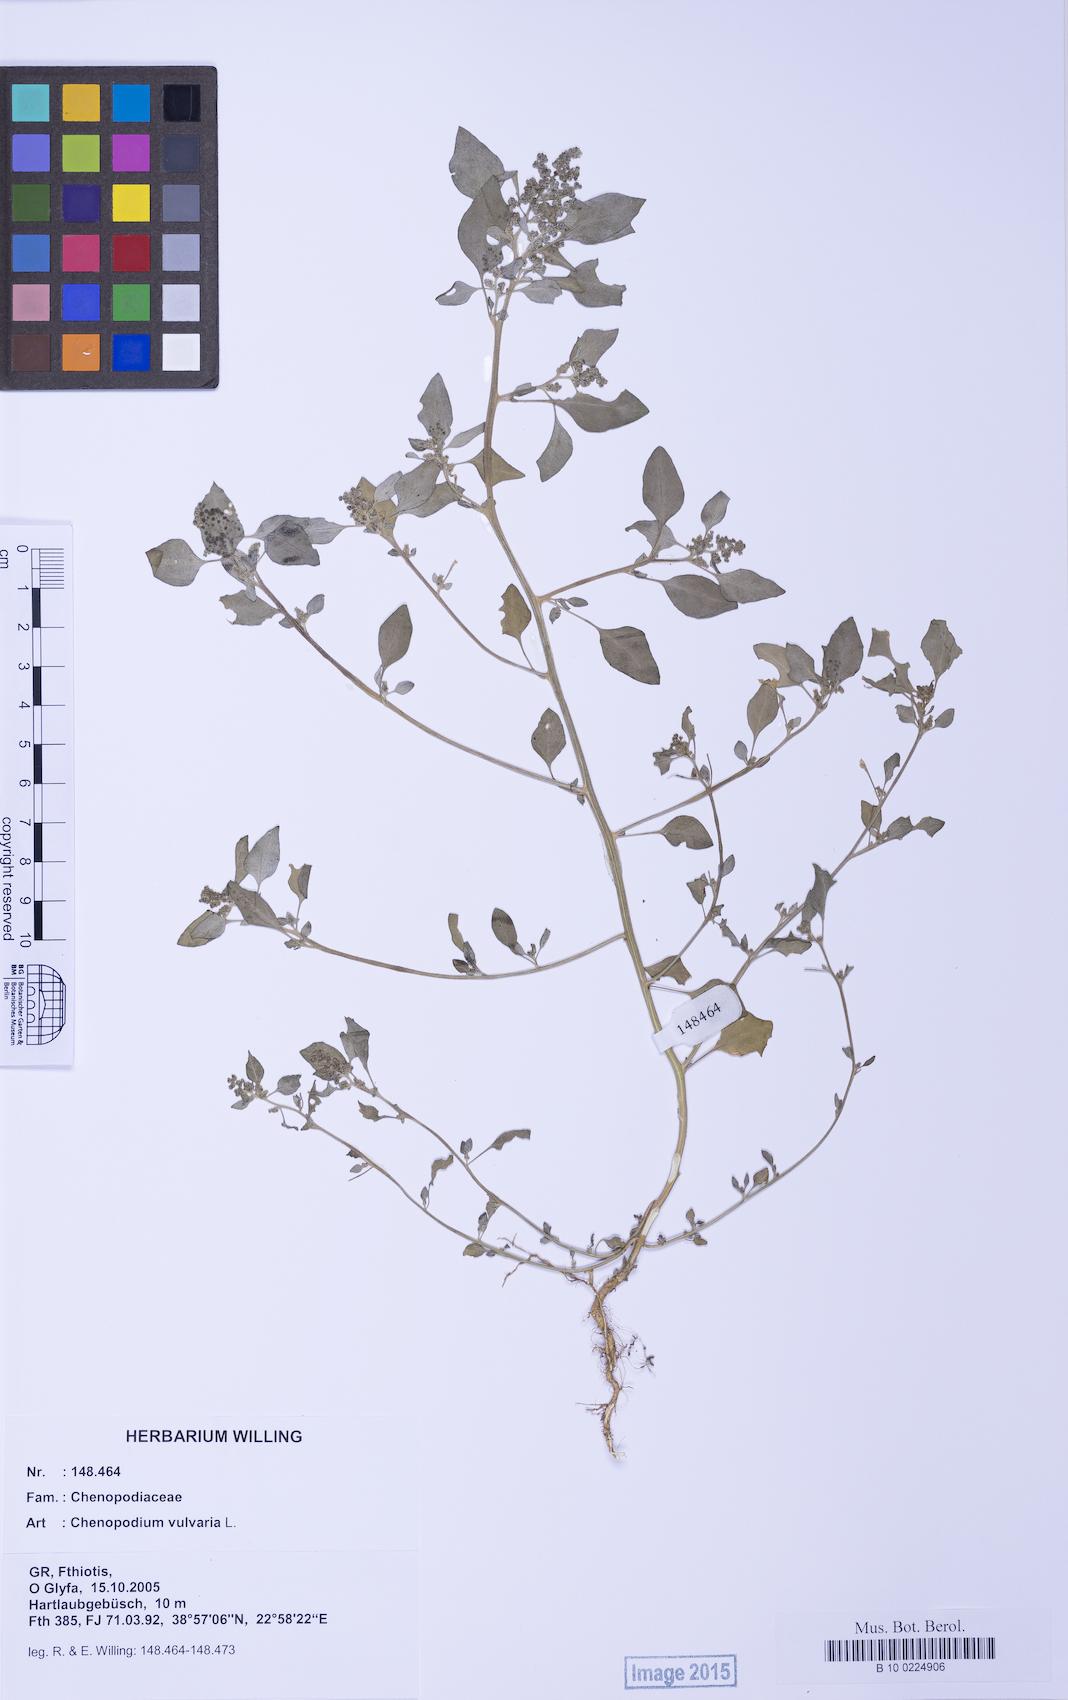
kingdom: Plantae
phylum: Tracheophyta
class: Magnoliopsida
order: Caryophyllales
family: Amaranthaceae
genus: Chenopodium
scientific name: Chenopodium vulvaria
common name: Stinking goosefoot
